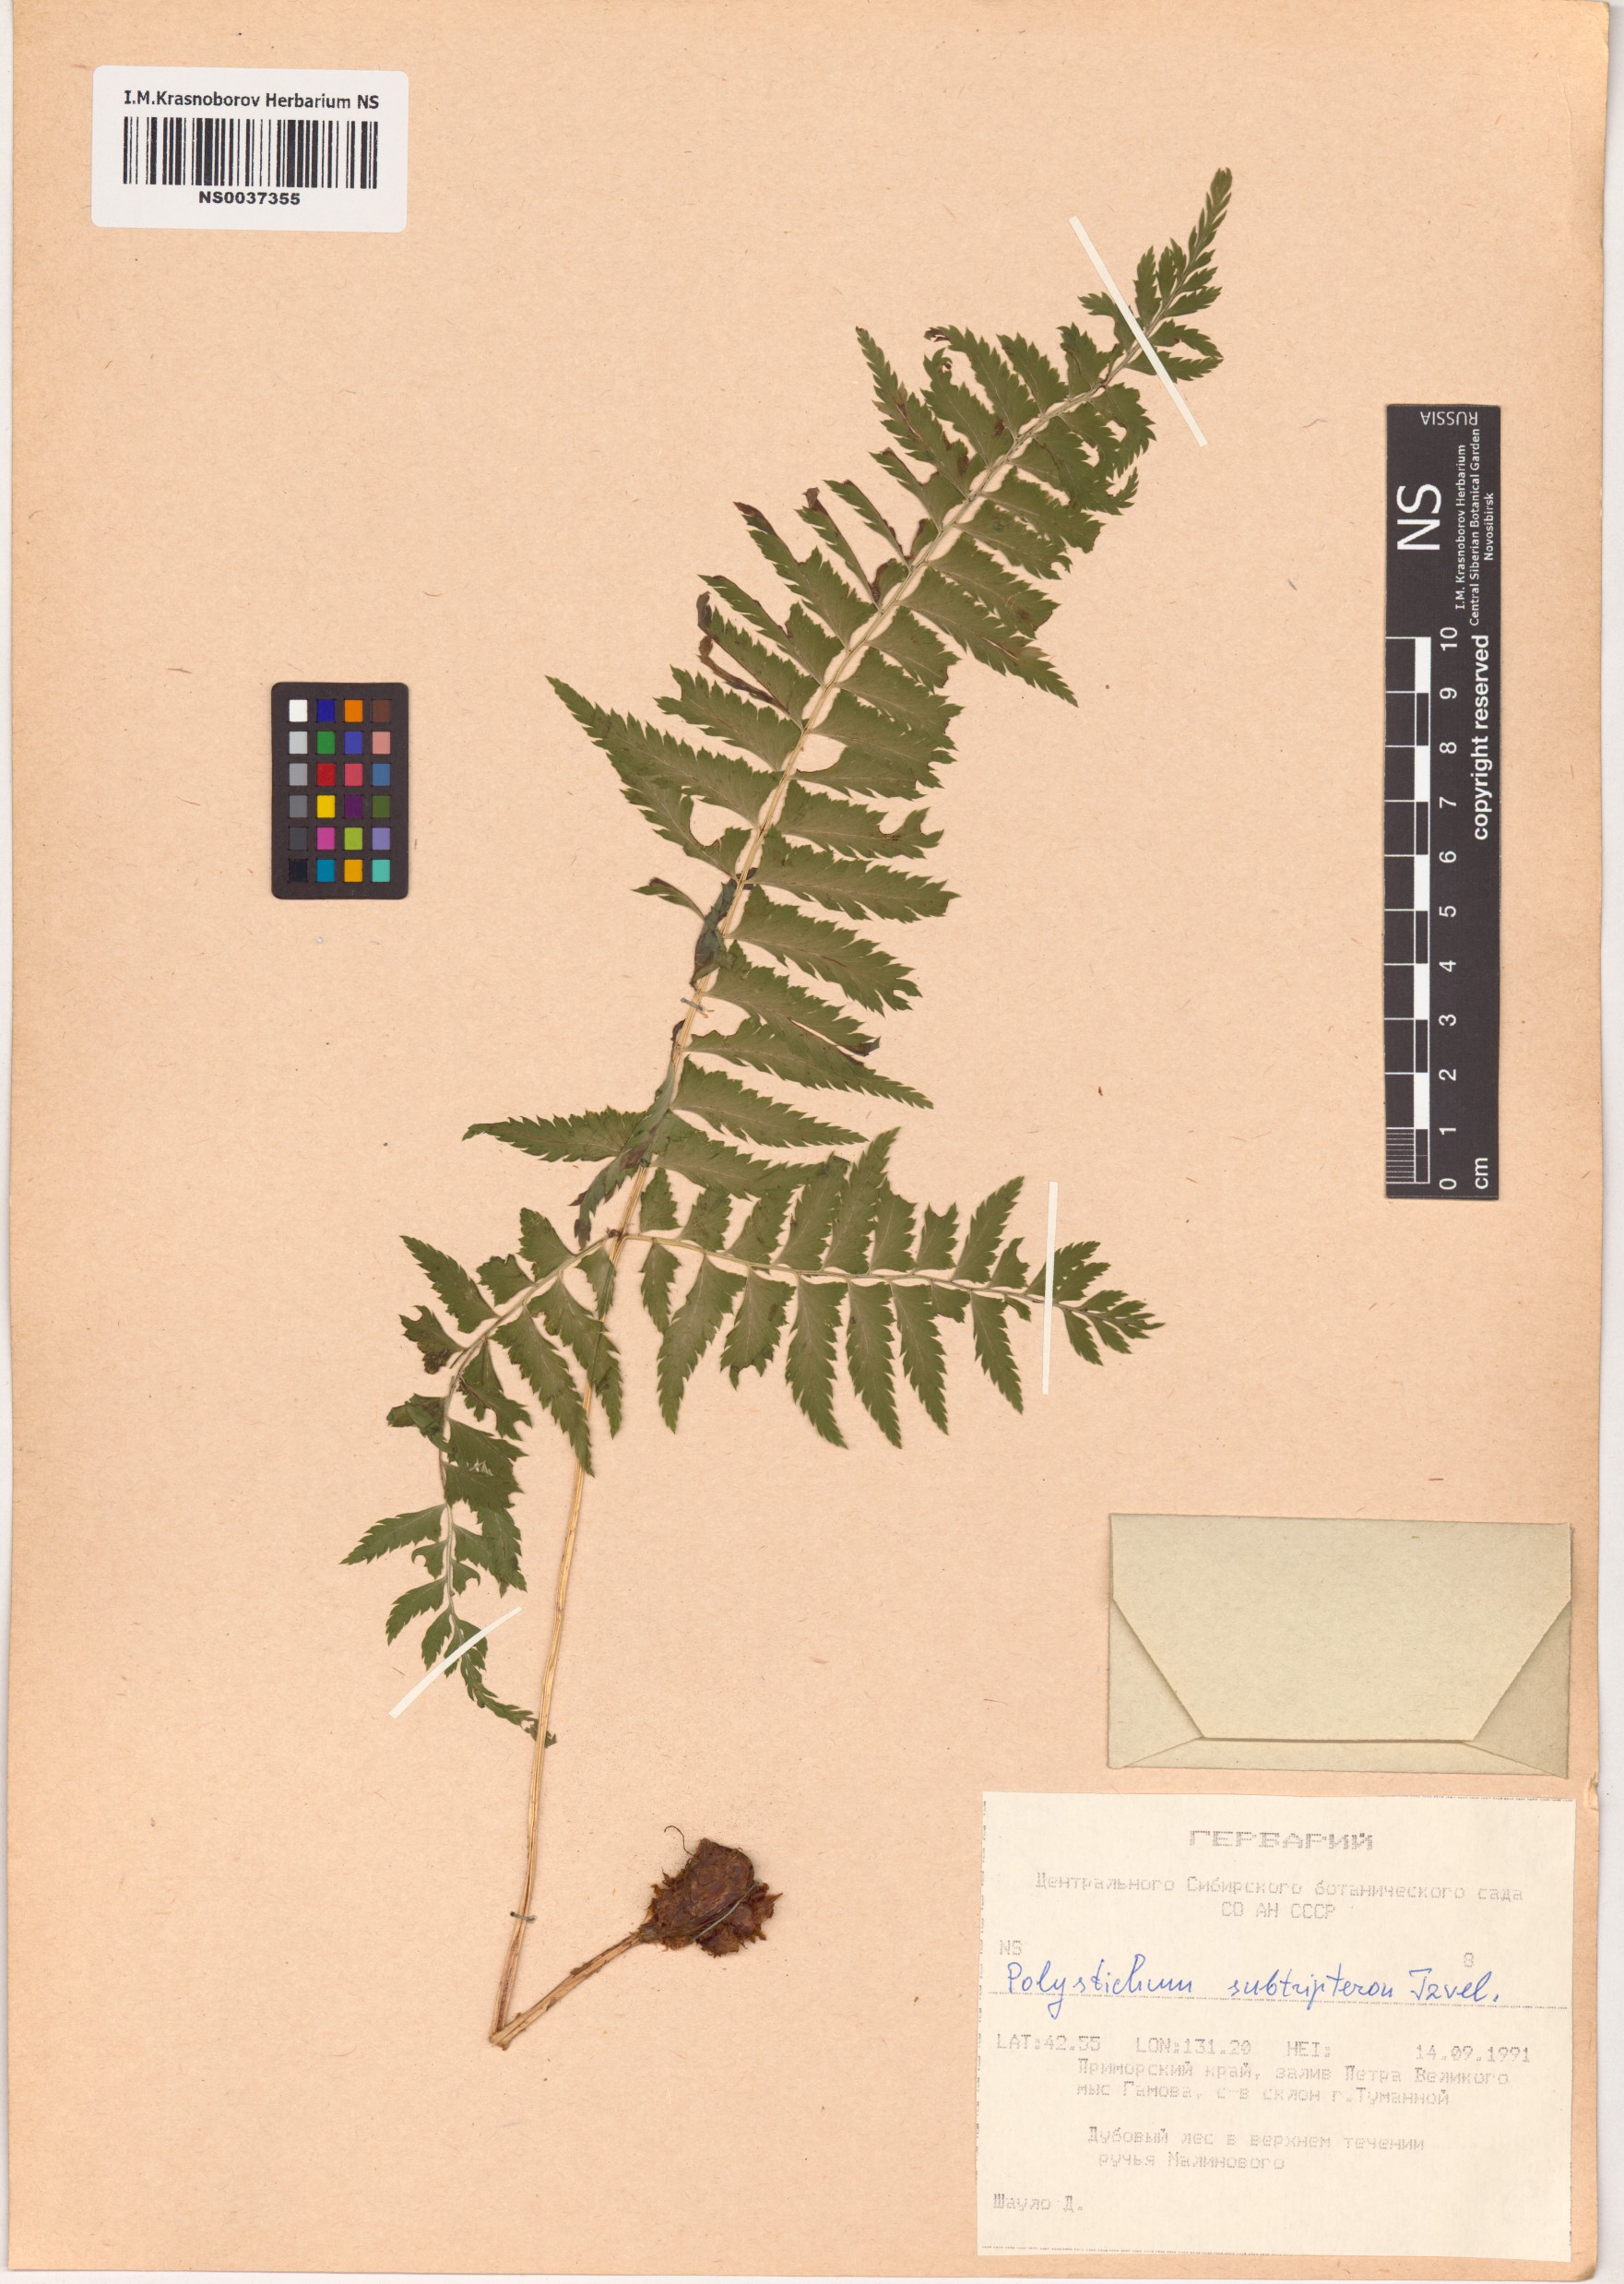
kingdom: Plantae
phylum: Tracheophyta
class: Polypodiopsida
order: Polypodiales
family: Dryopteridaceae
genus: Polystichum
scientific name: Polystichum tripteron
